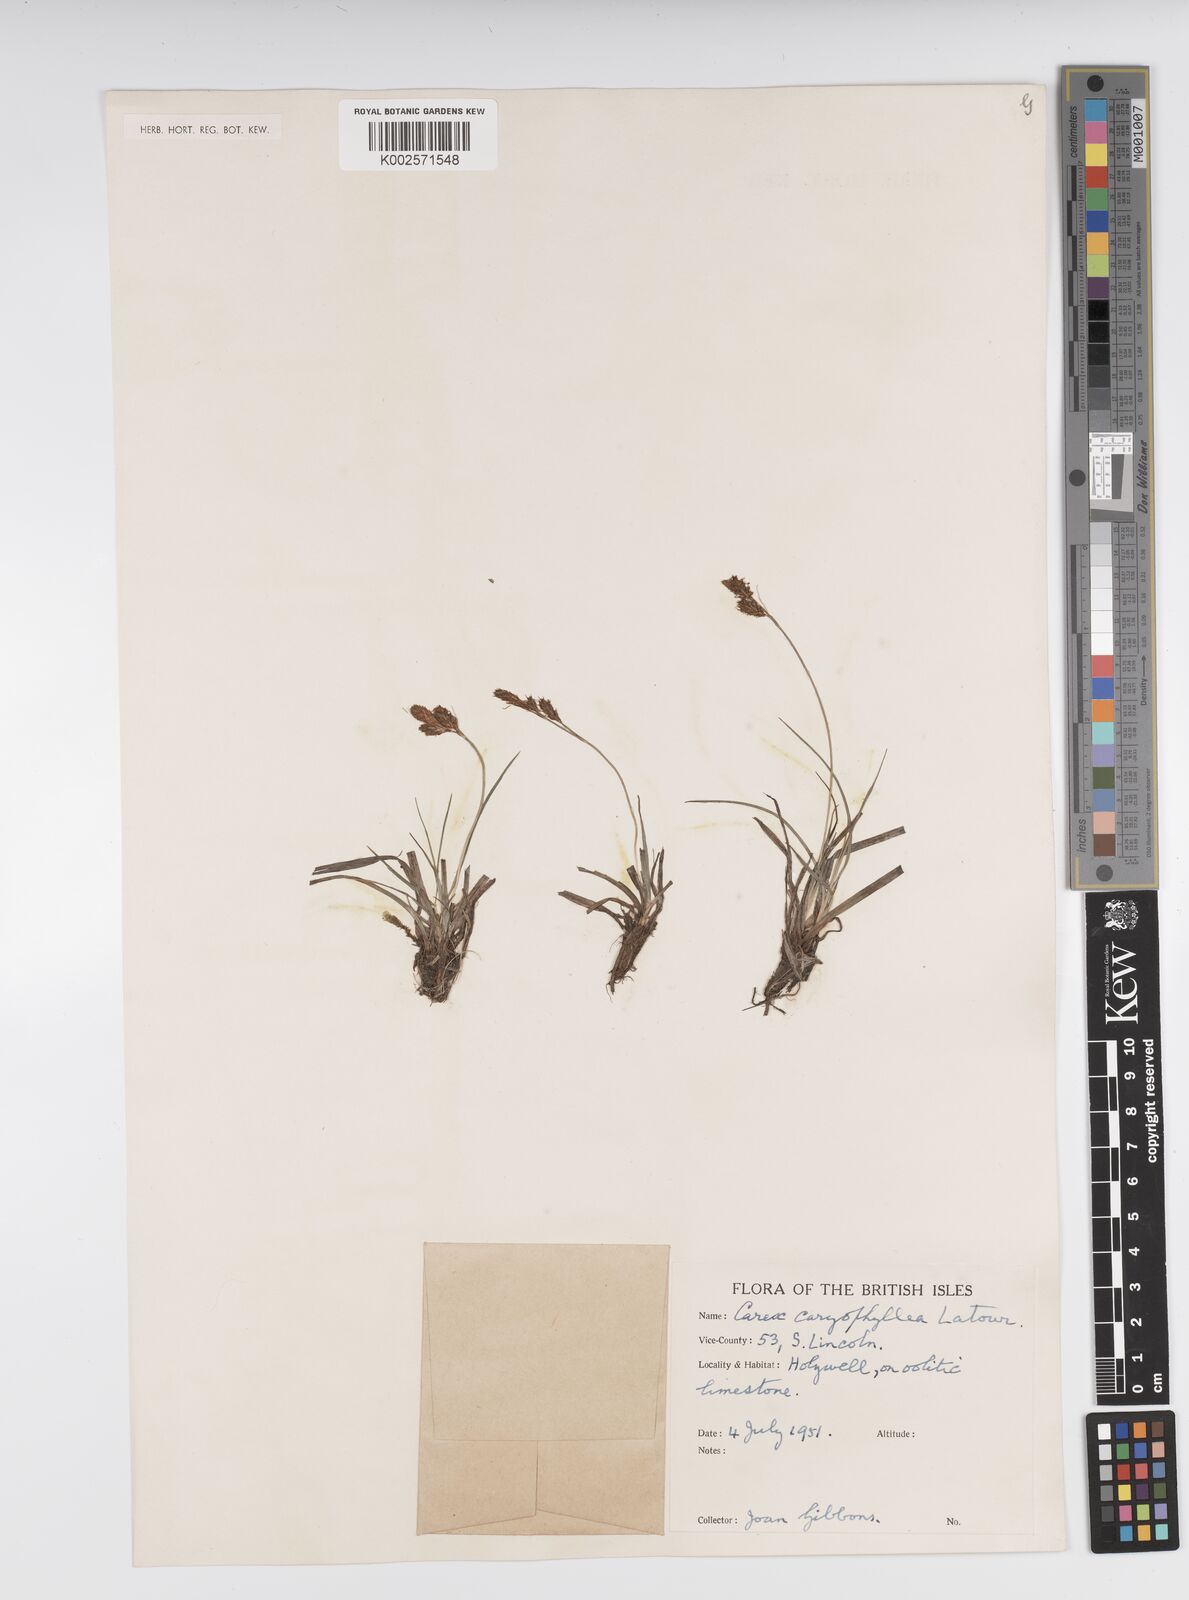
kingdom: Plantae
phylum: Tracheophyta
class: Liliopsida
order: Poales
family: Cyperaceae
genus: Carex
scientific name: Carex caryophyllea
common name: Spring sedge
